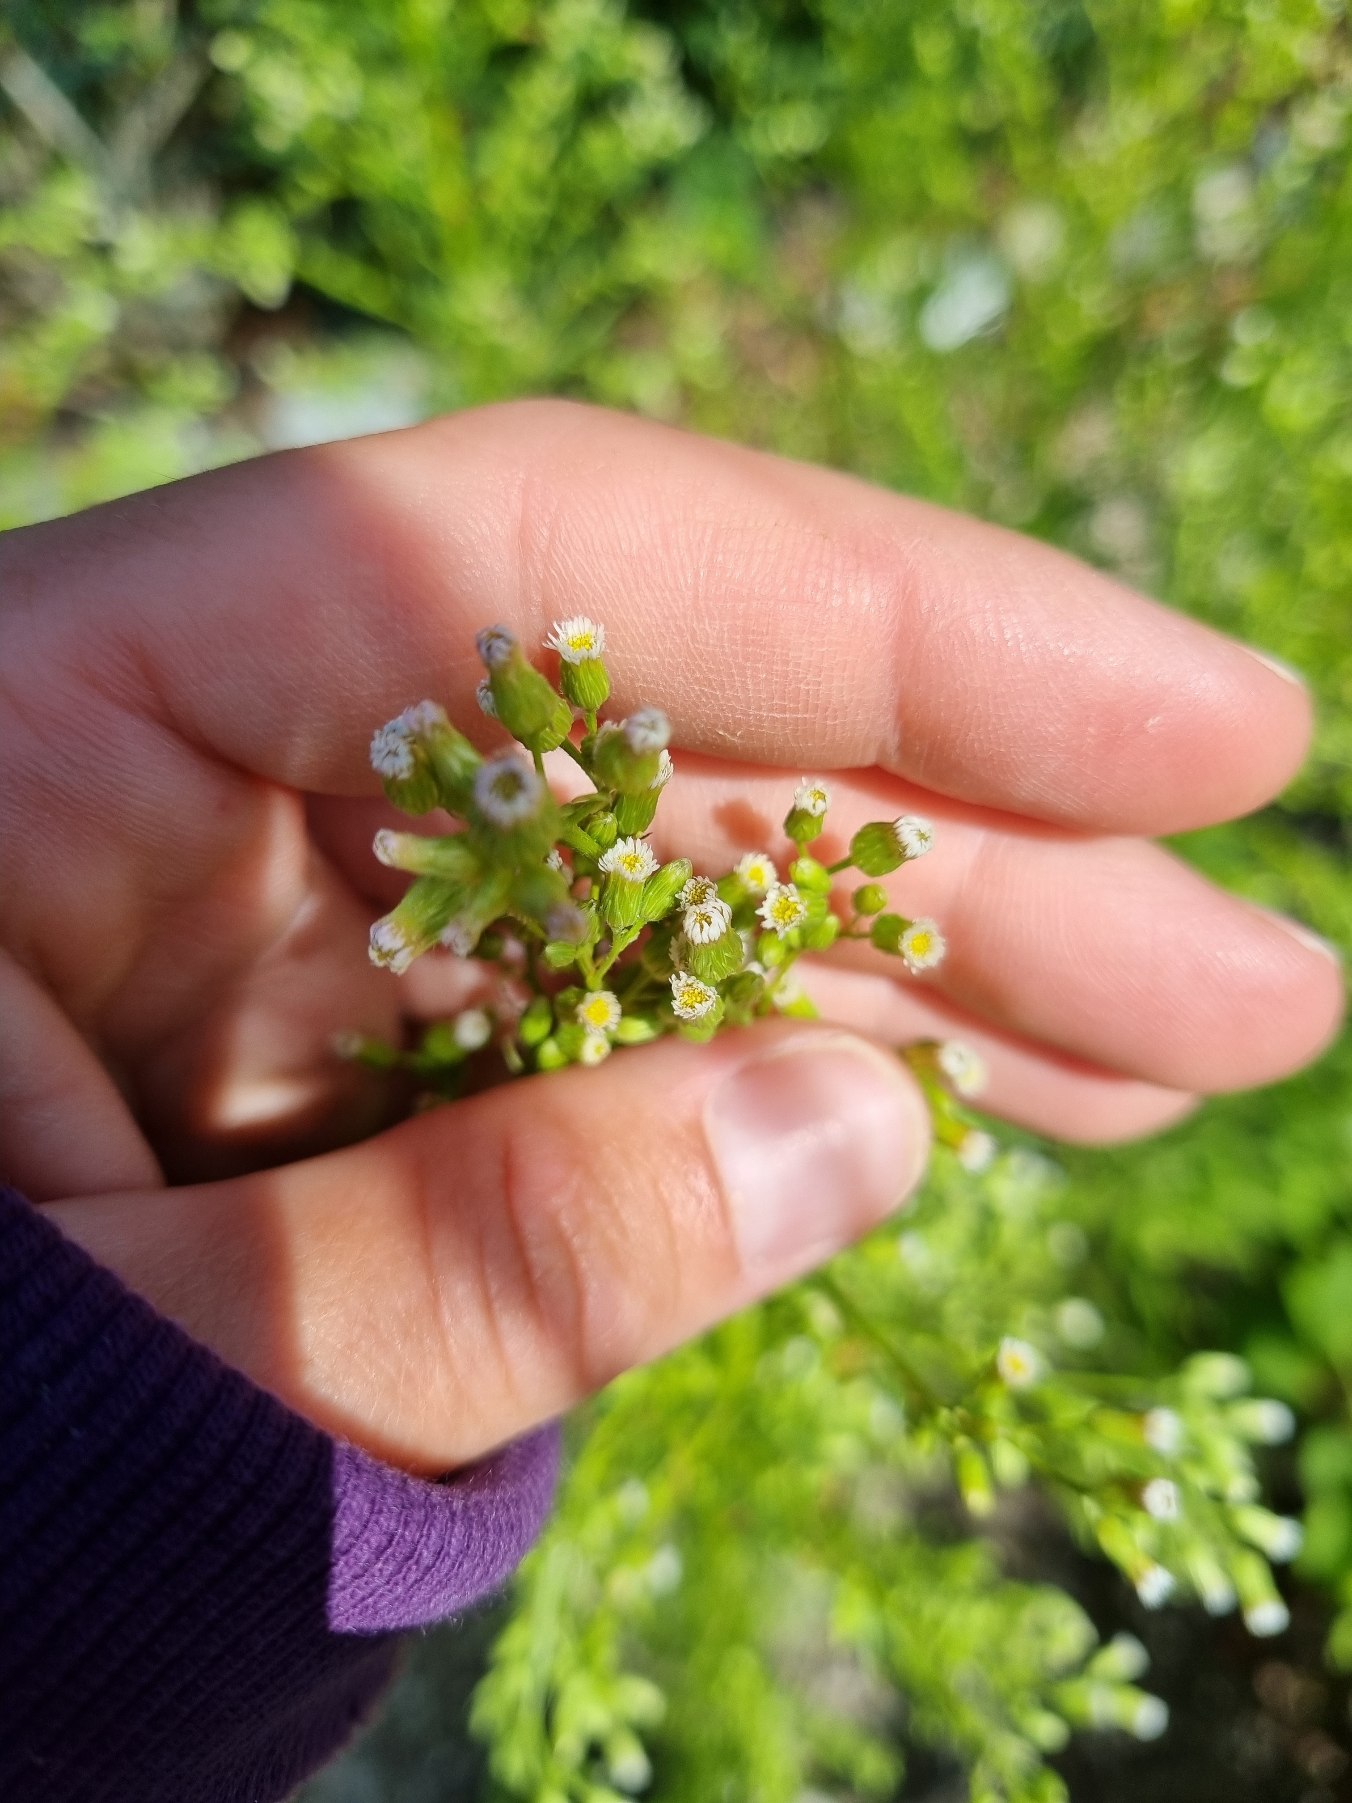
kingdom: Plantae
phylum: Tracheophyta
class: Magnoliopsida
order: Asterales
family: Asteraceae
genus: Erigeron
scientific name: Erigeron canadensis
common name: Kanadisk bakkestjerne
